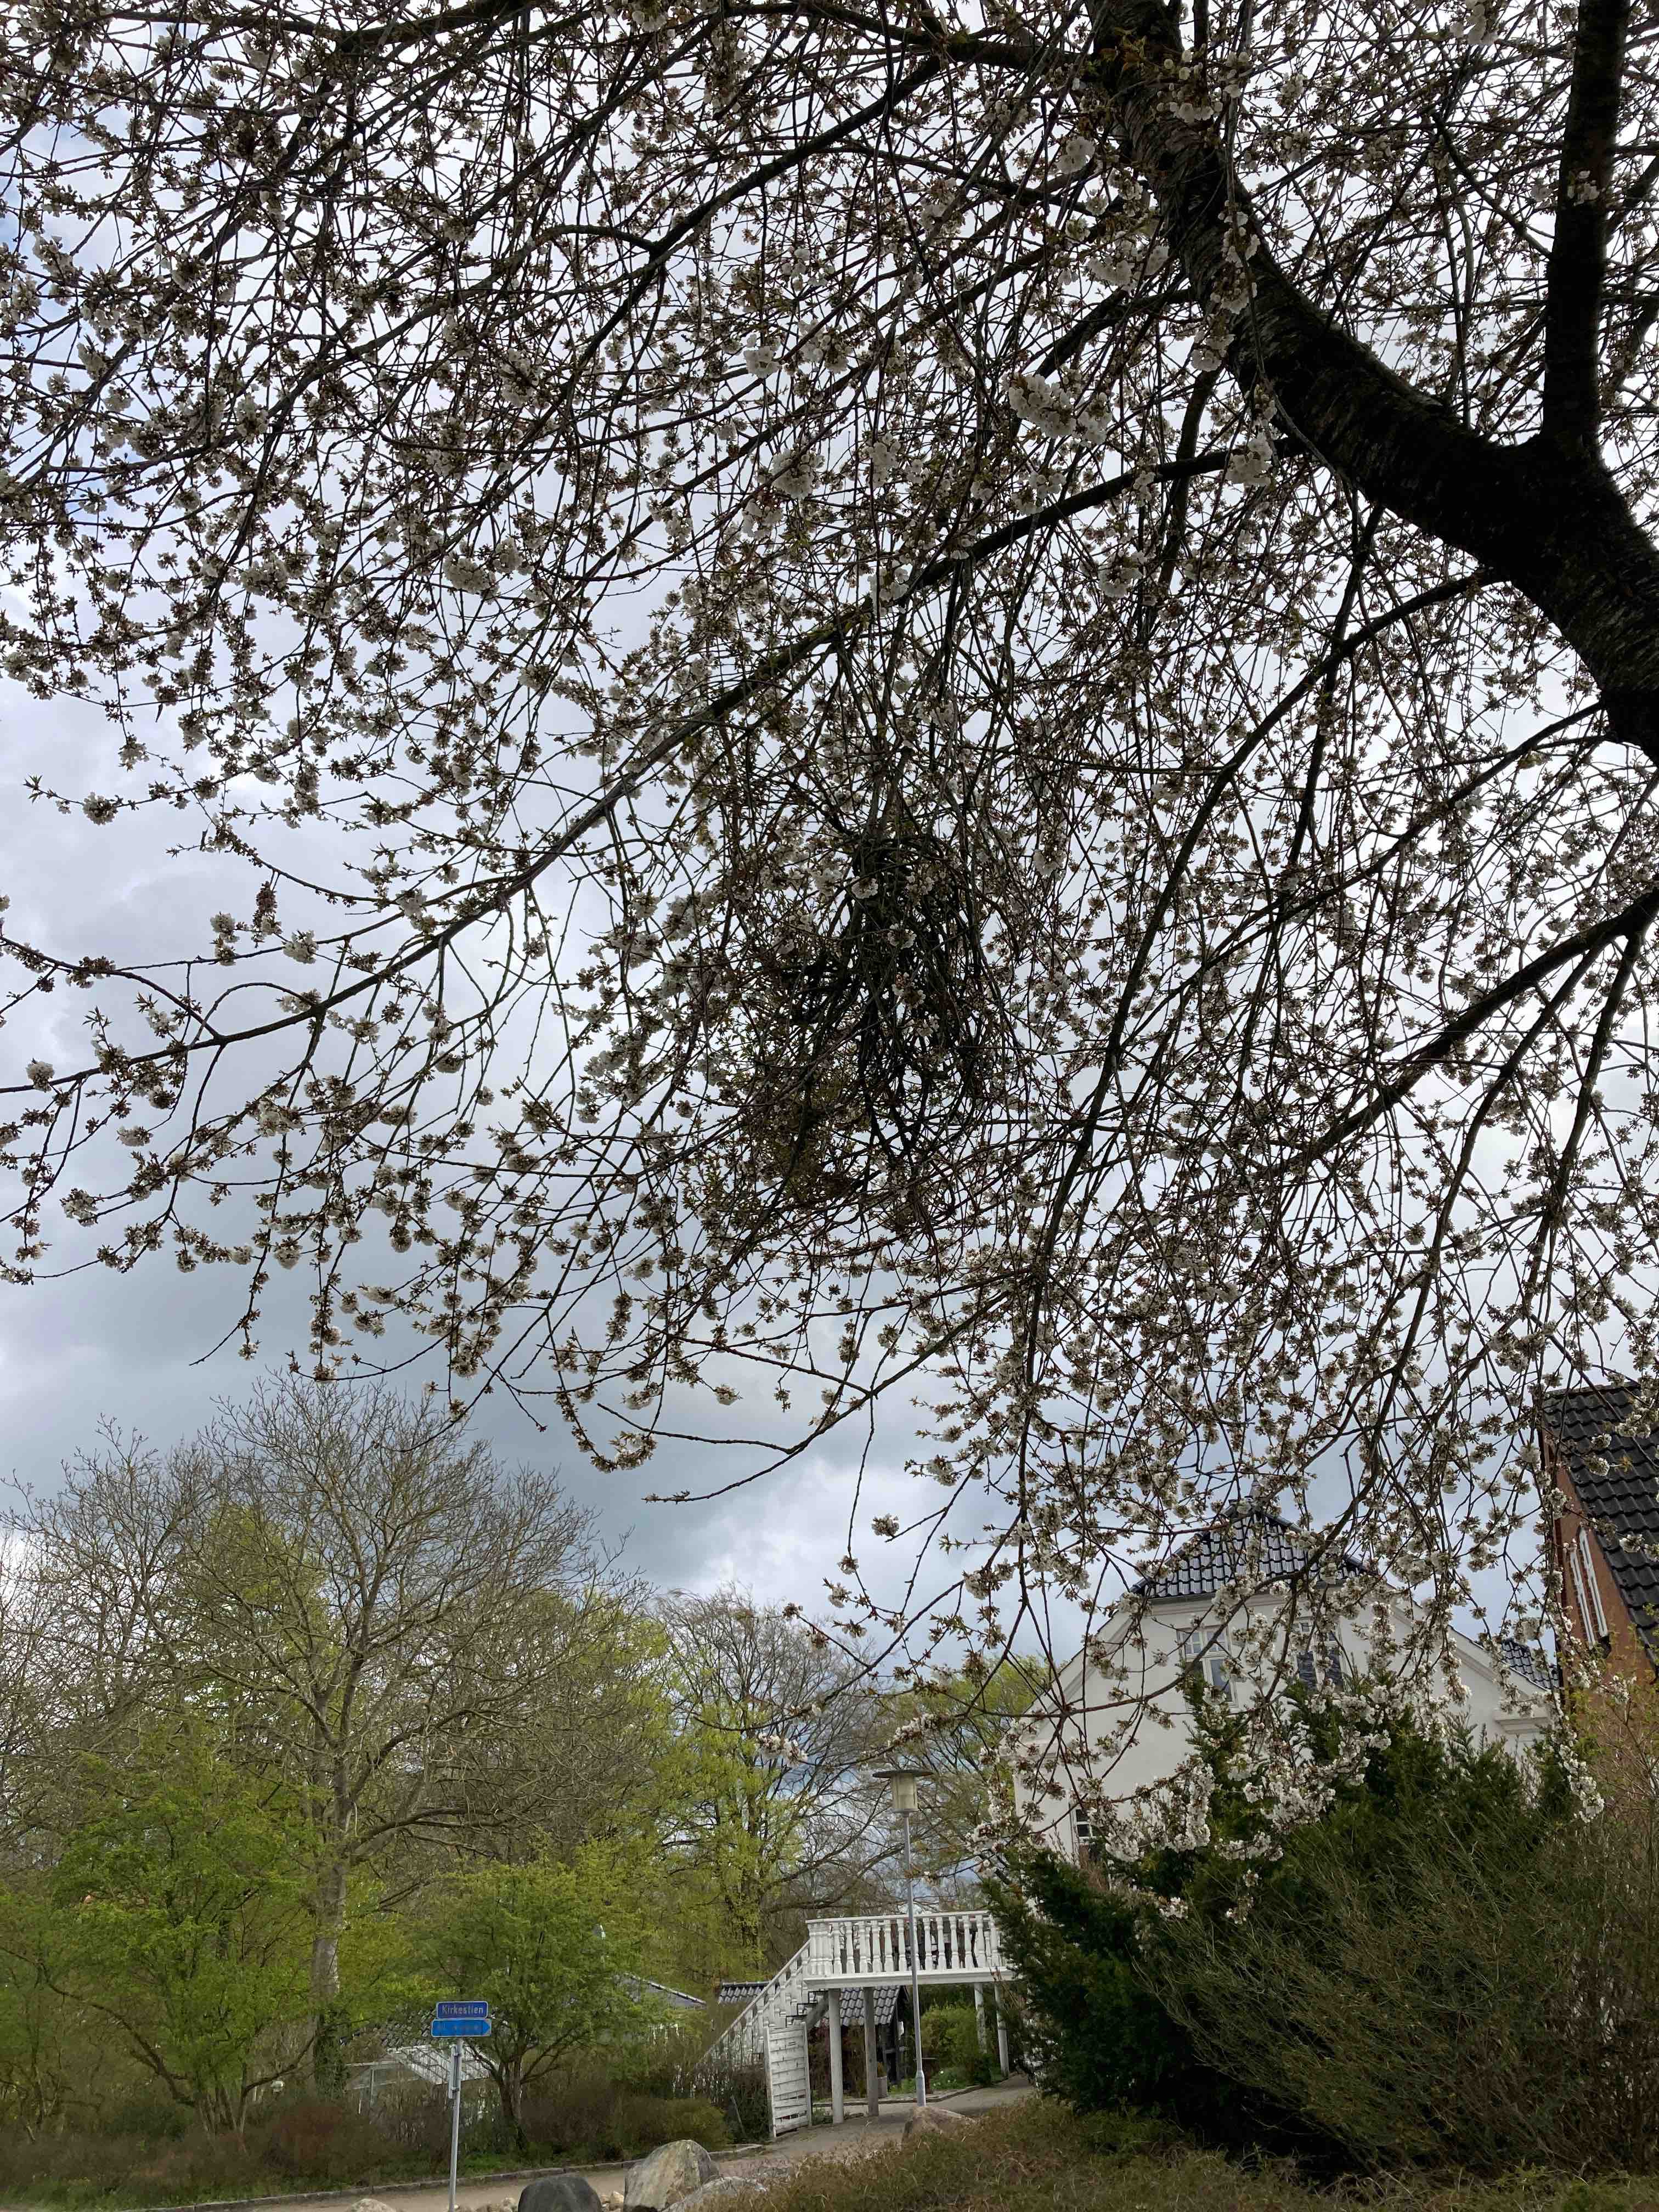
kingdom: Fungi
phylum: Ascomycota
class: Taphrinomycetes
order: Taphrinales
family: Taphrinaceae
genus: Taphrina
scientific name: Taphrina wiesneri
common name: Cherry leaf curl
